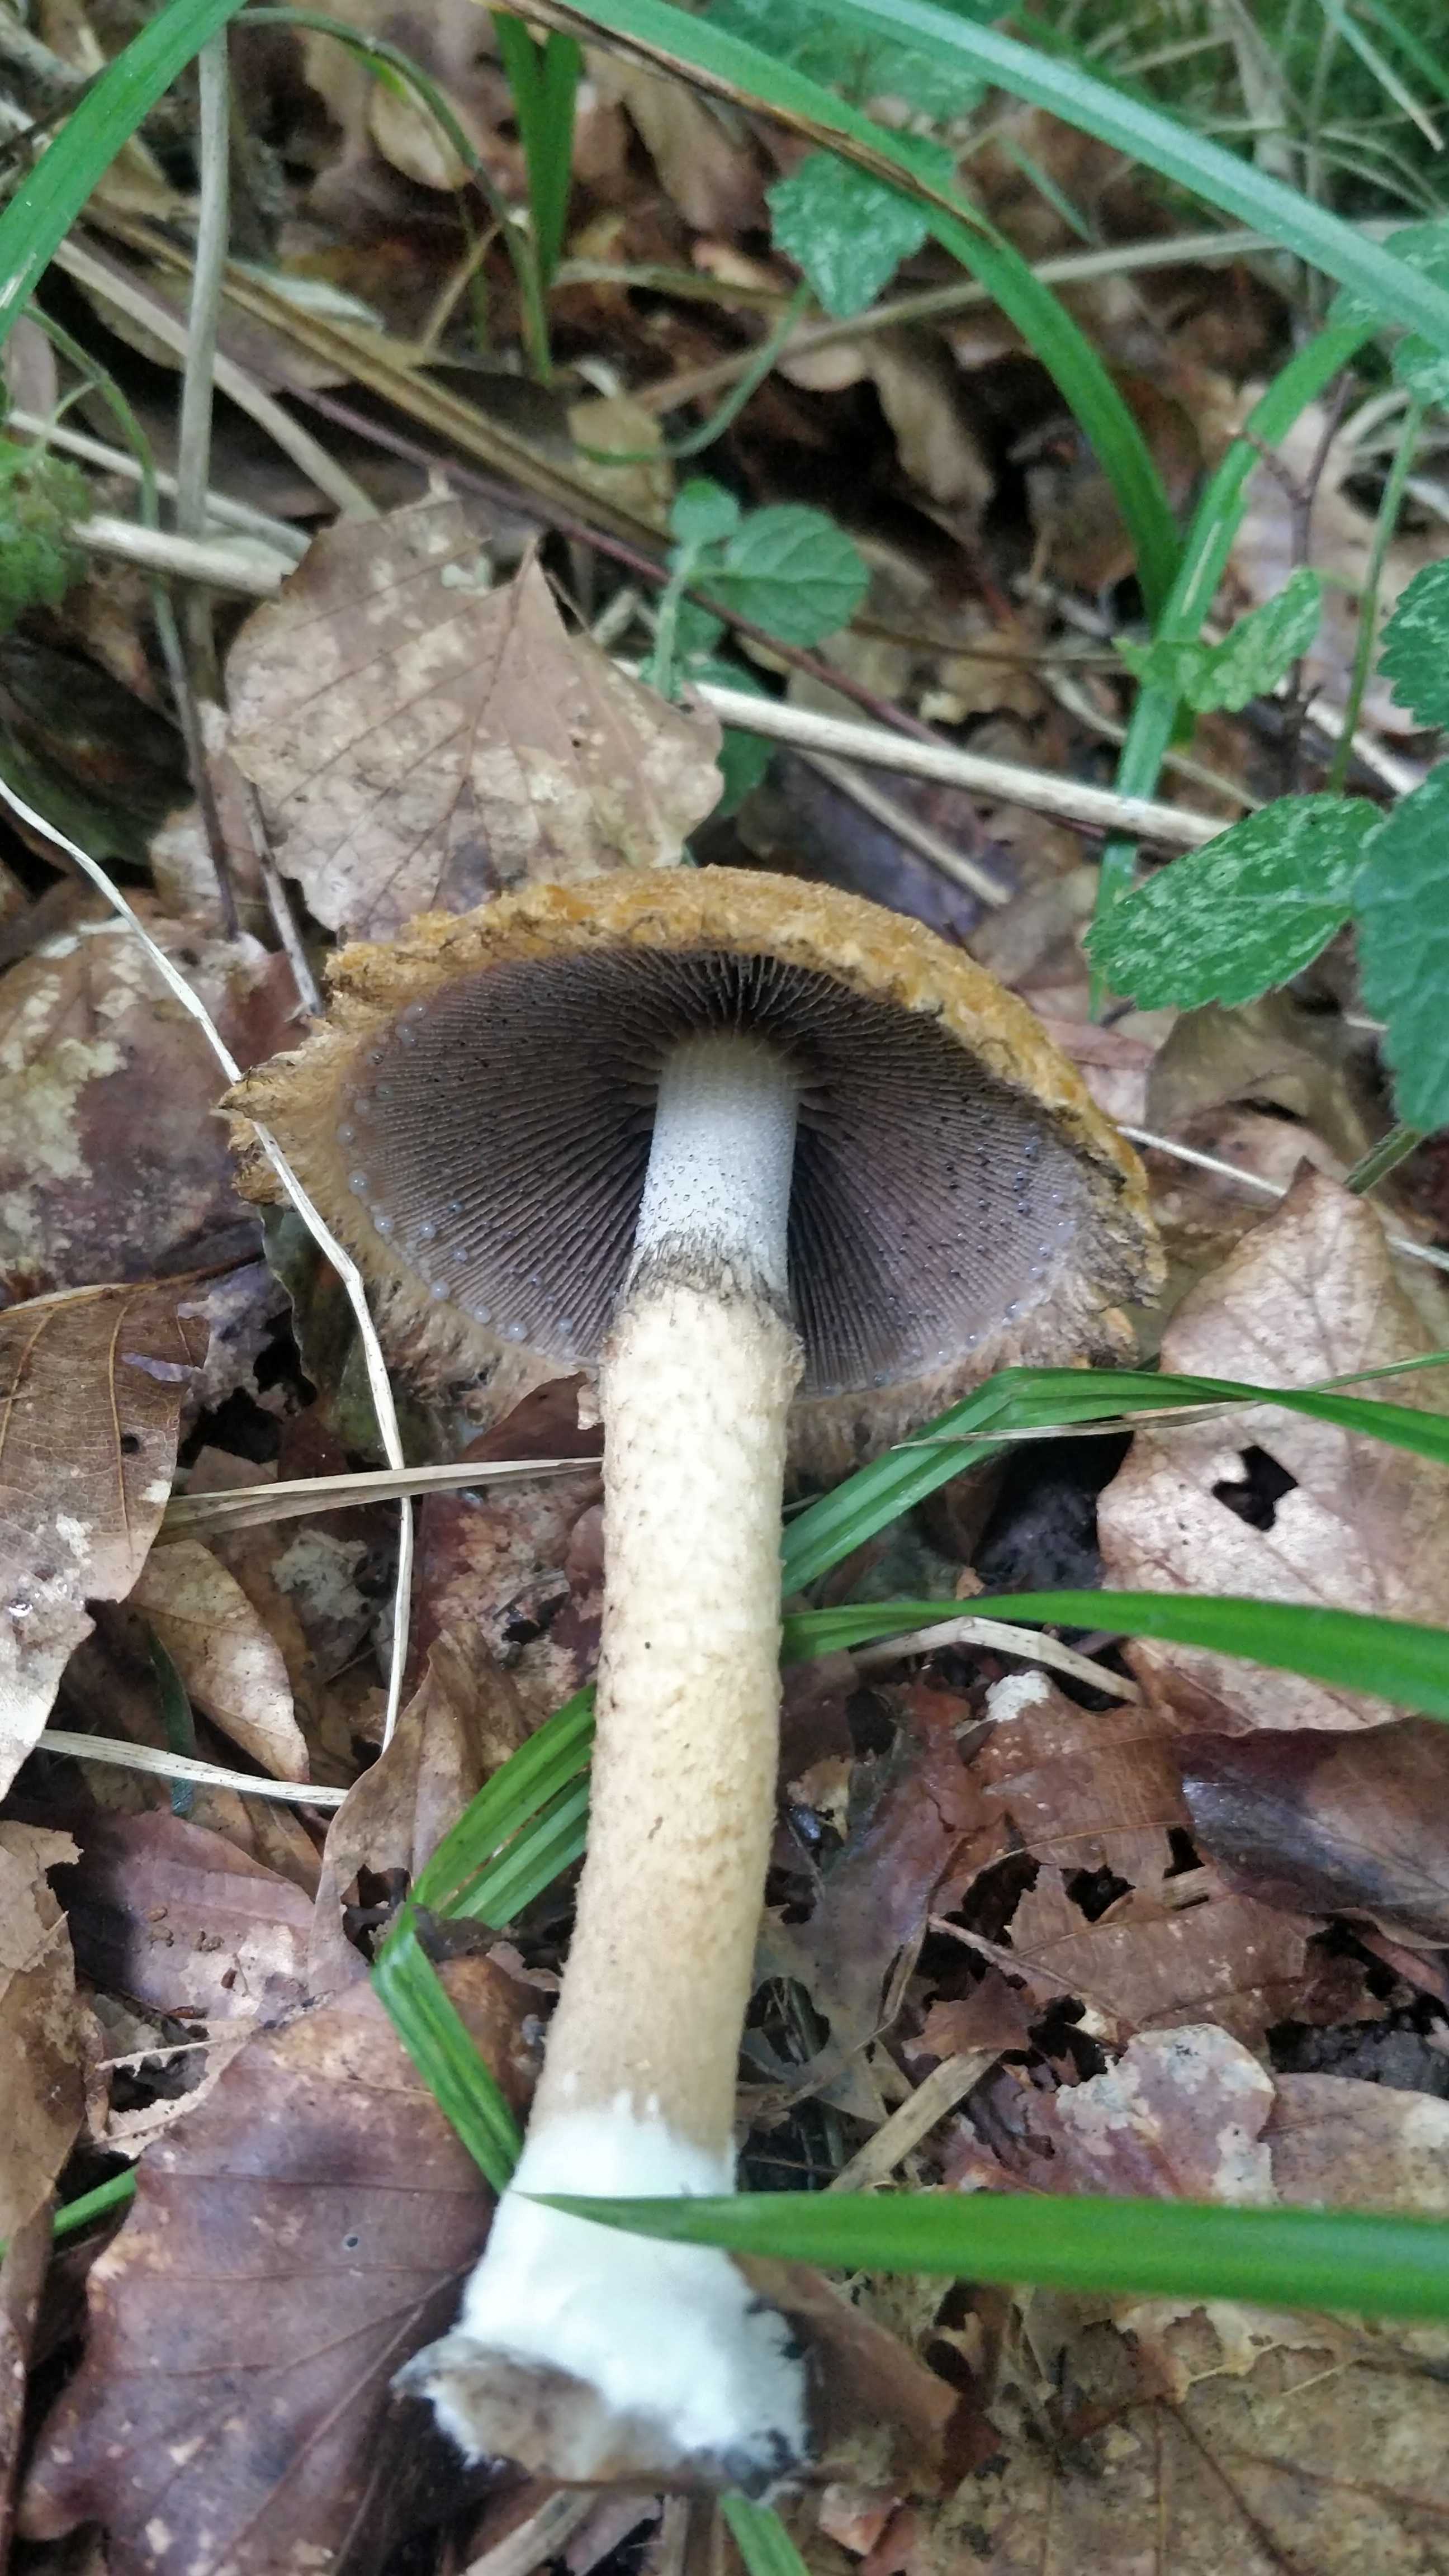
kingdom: Fungi
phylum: Basidiomycota
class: Agaricomycetes
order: Agaricales
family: Psathyrellaceae
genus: Lacrymaria
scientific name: Lacrymaria lacrymabunda
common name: grædende mørkhat
